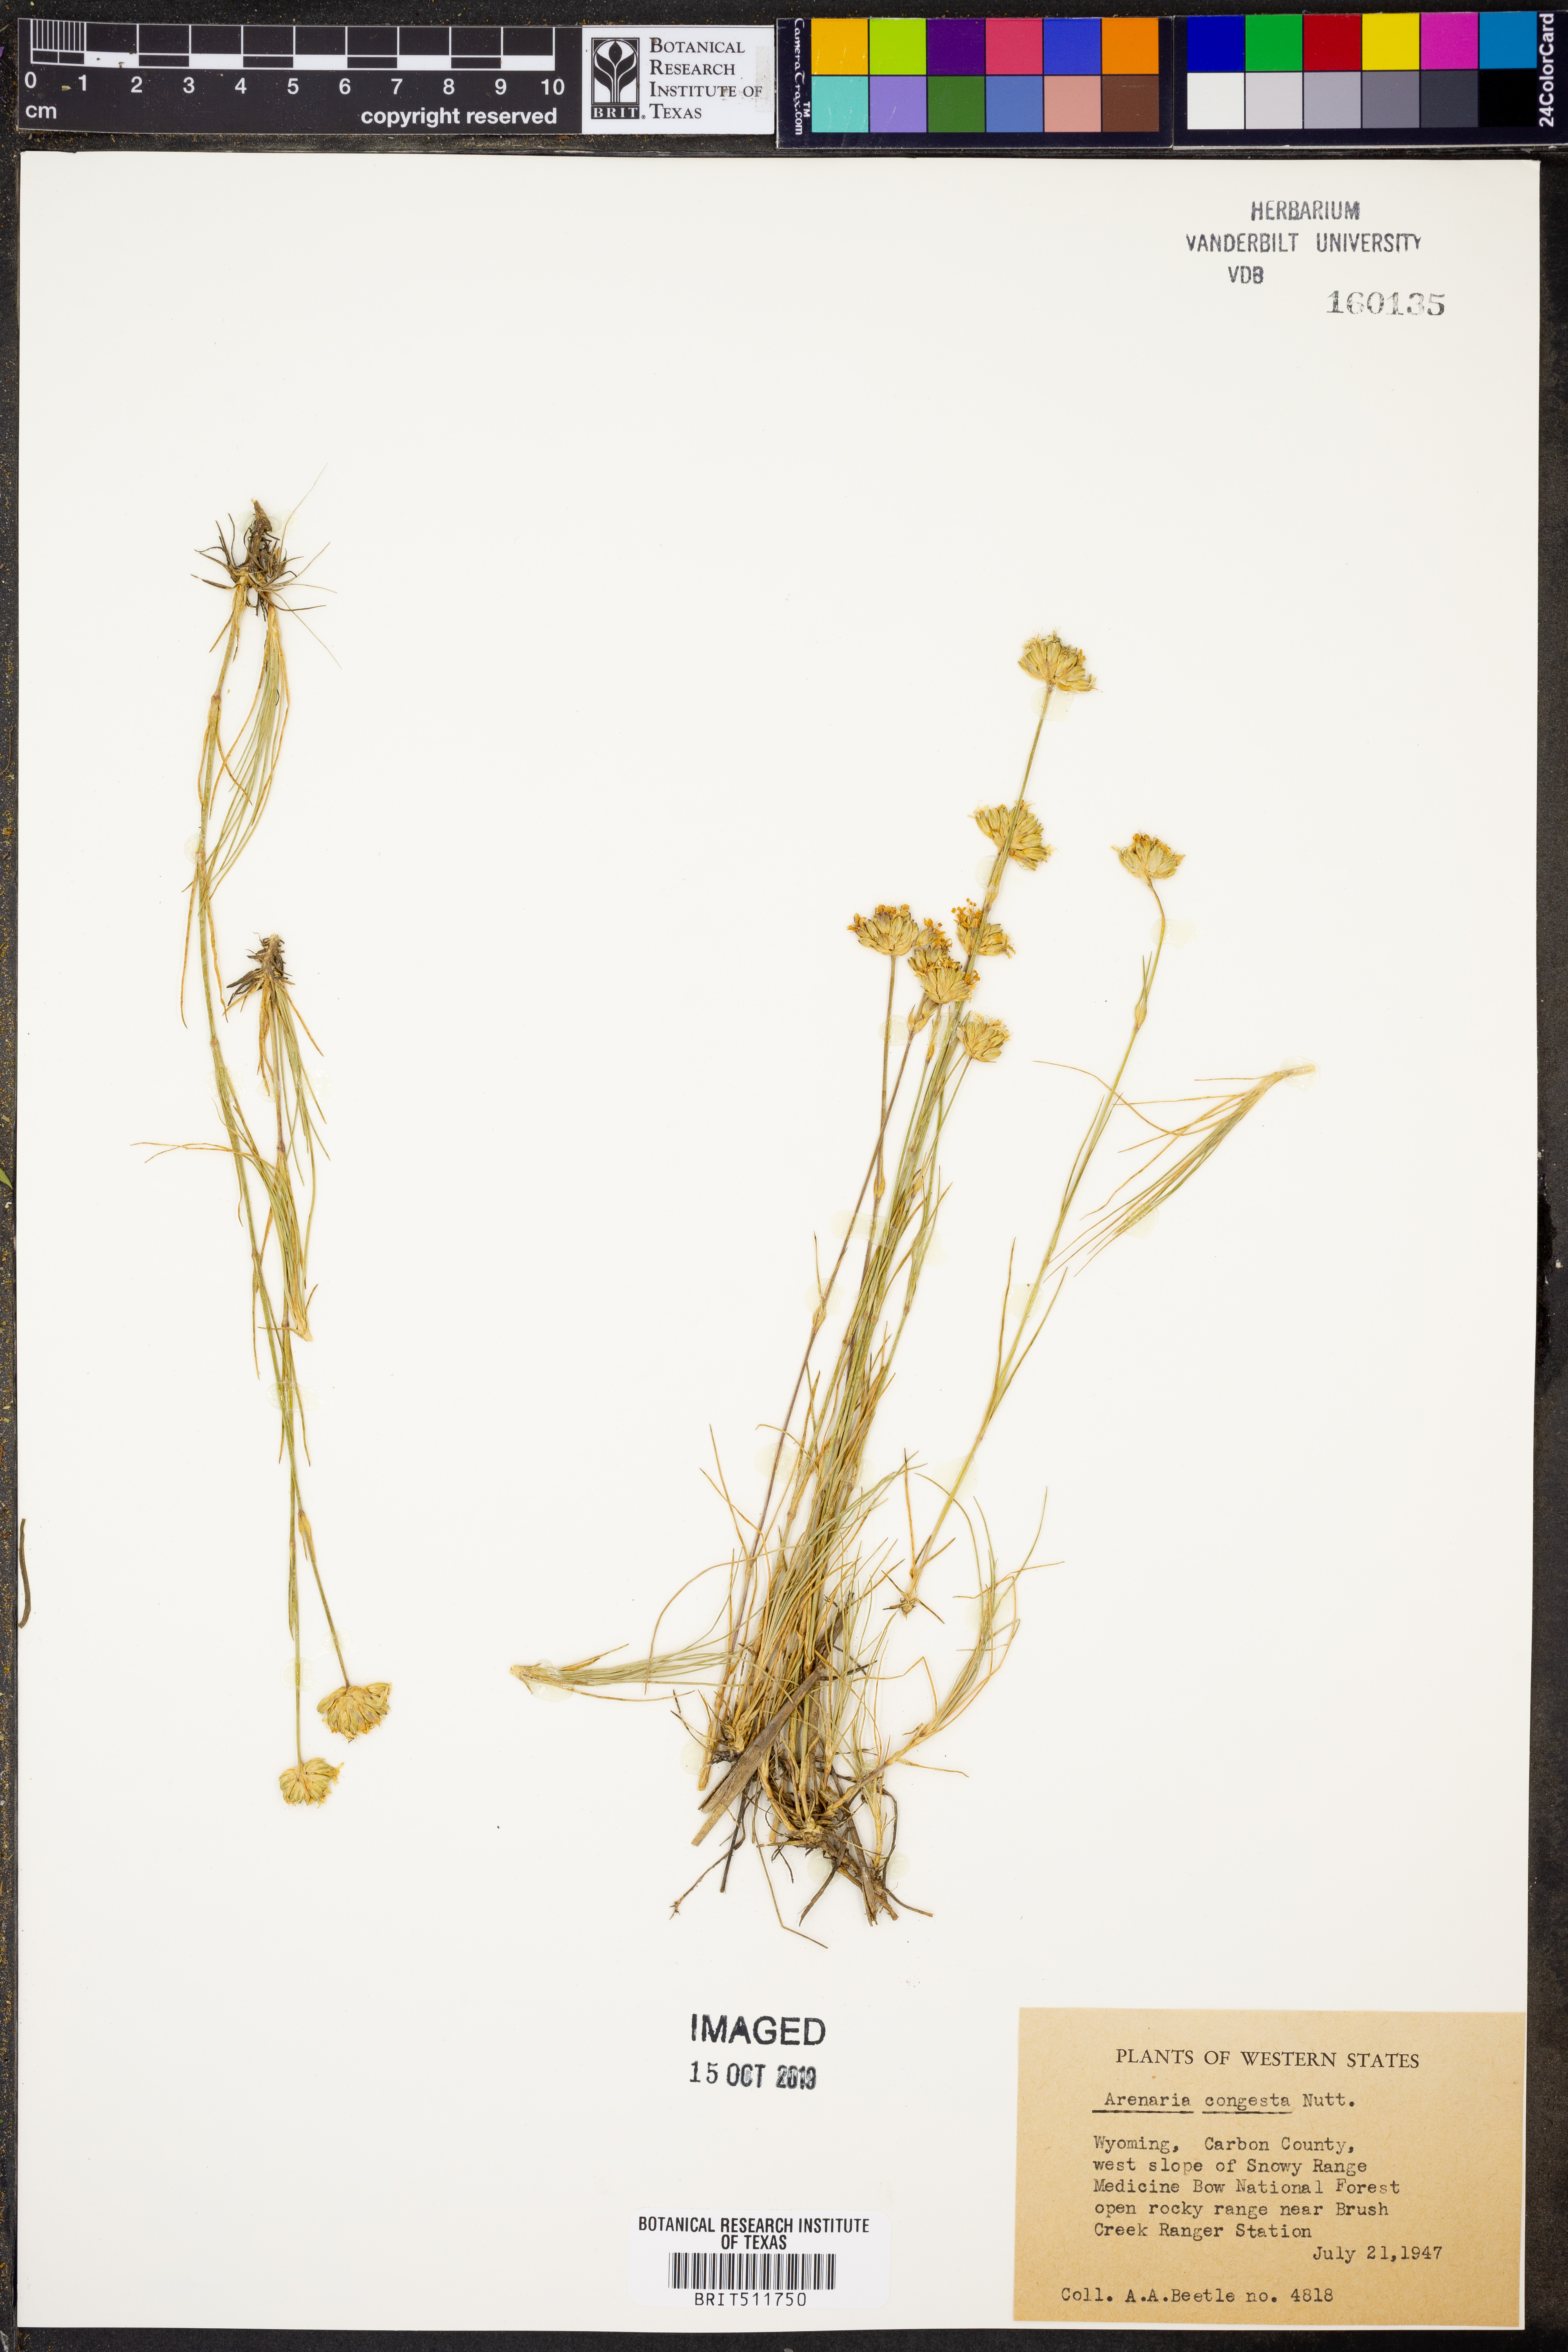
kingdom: Plantae
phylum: Tracheophyta
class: Magnoliopsida
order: Caryophyllales
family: Caryophyllaceae
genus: Eremogone
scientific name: Eremogone congesta
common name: Ballhead sandwort
